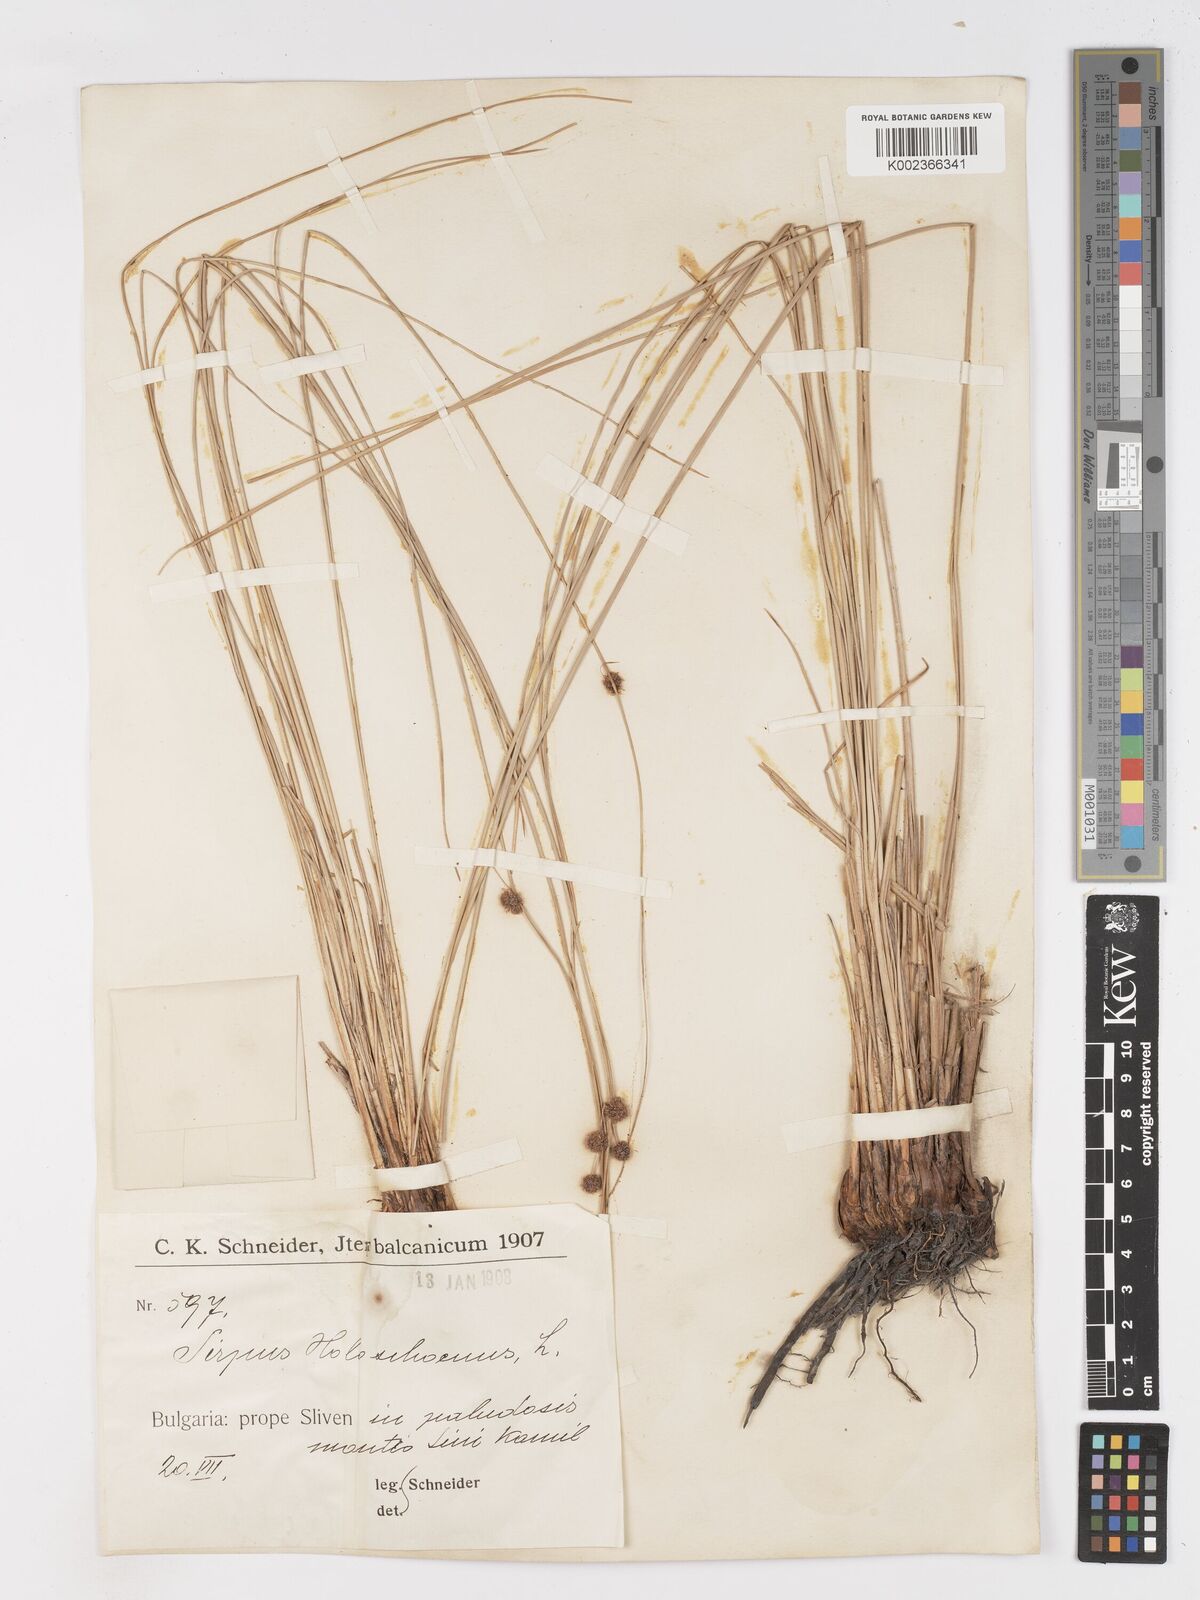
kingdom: Plantae
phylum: Tracheophyta
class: Liliopsida
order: Poales
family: Cyperaceae
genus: Scirpoides
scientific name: Scirpoides holoschoenus
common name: Round-headed club-rush
